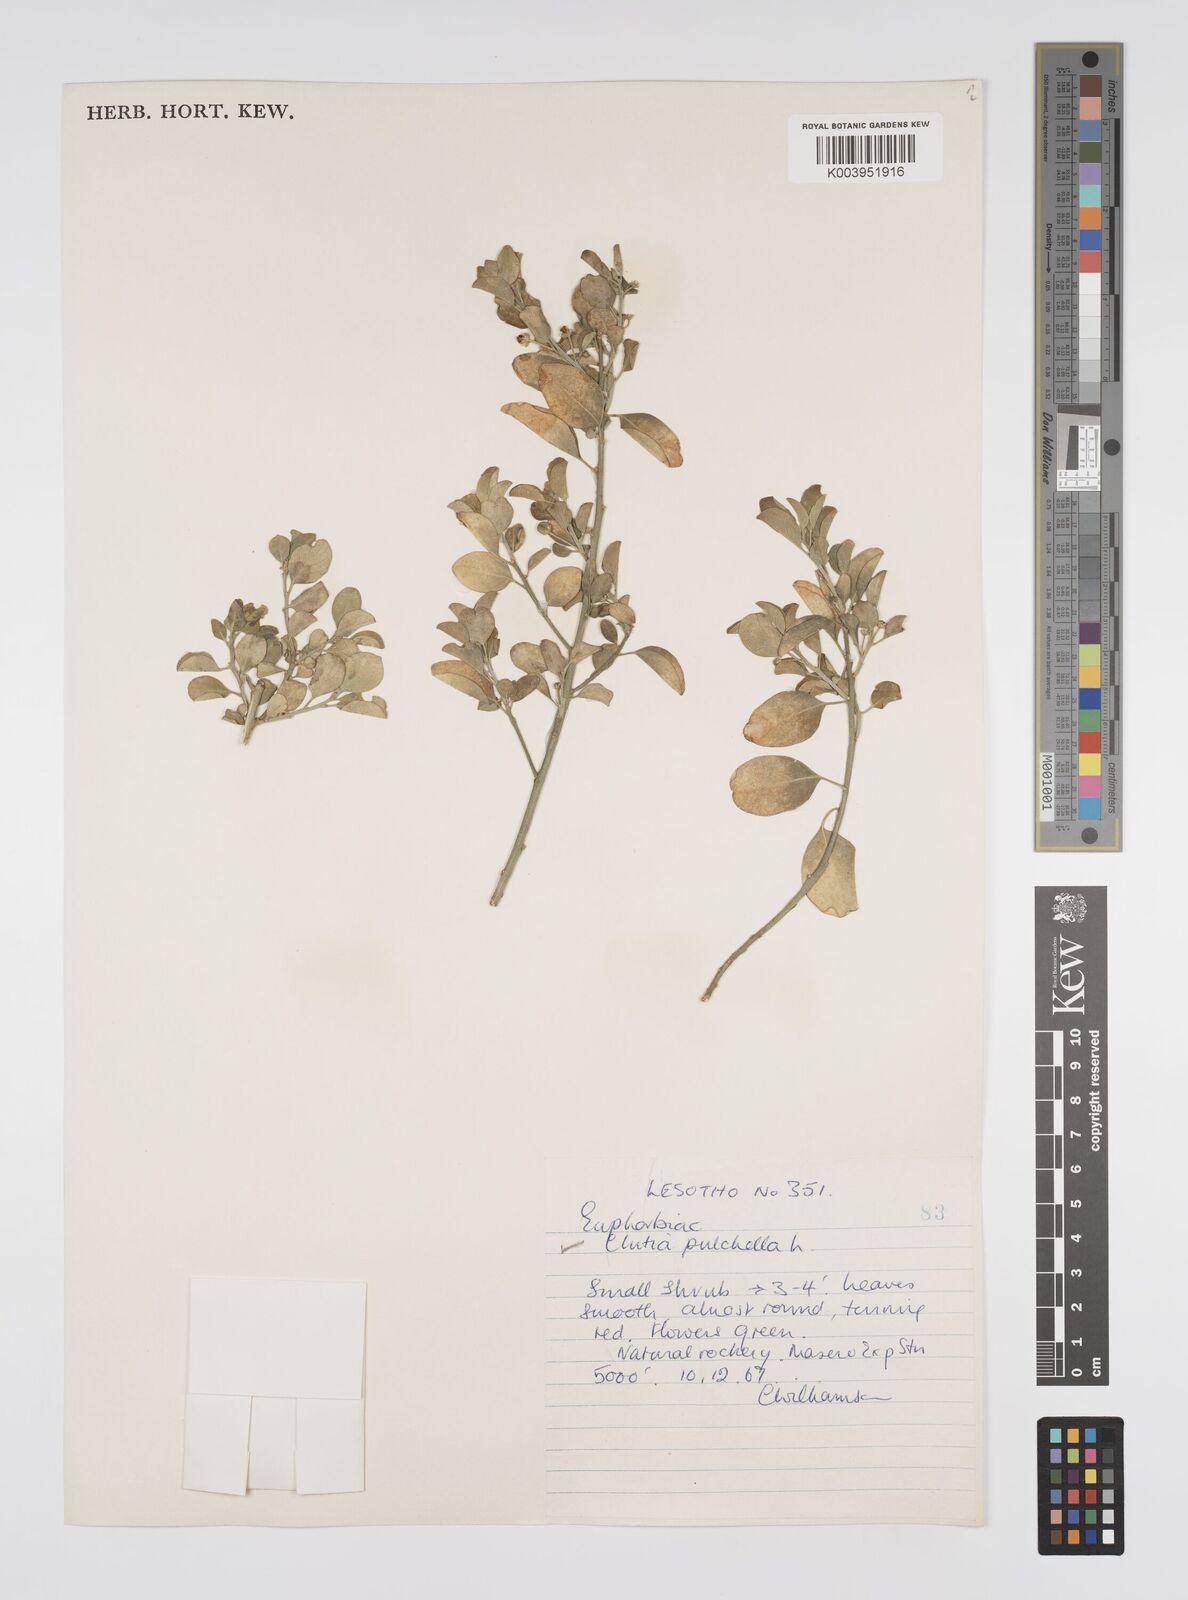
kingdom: Plantae
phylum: Tracheophyta
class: Magnoliopsida
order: Malpighiales
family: Peraceae
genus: Clutia
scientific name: Clutia pulchella
